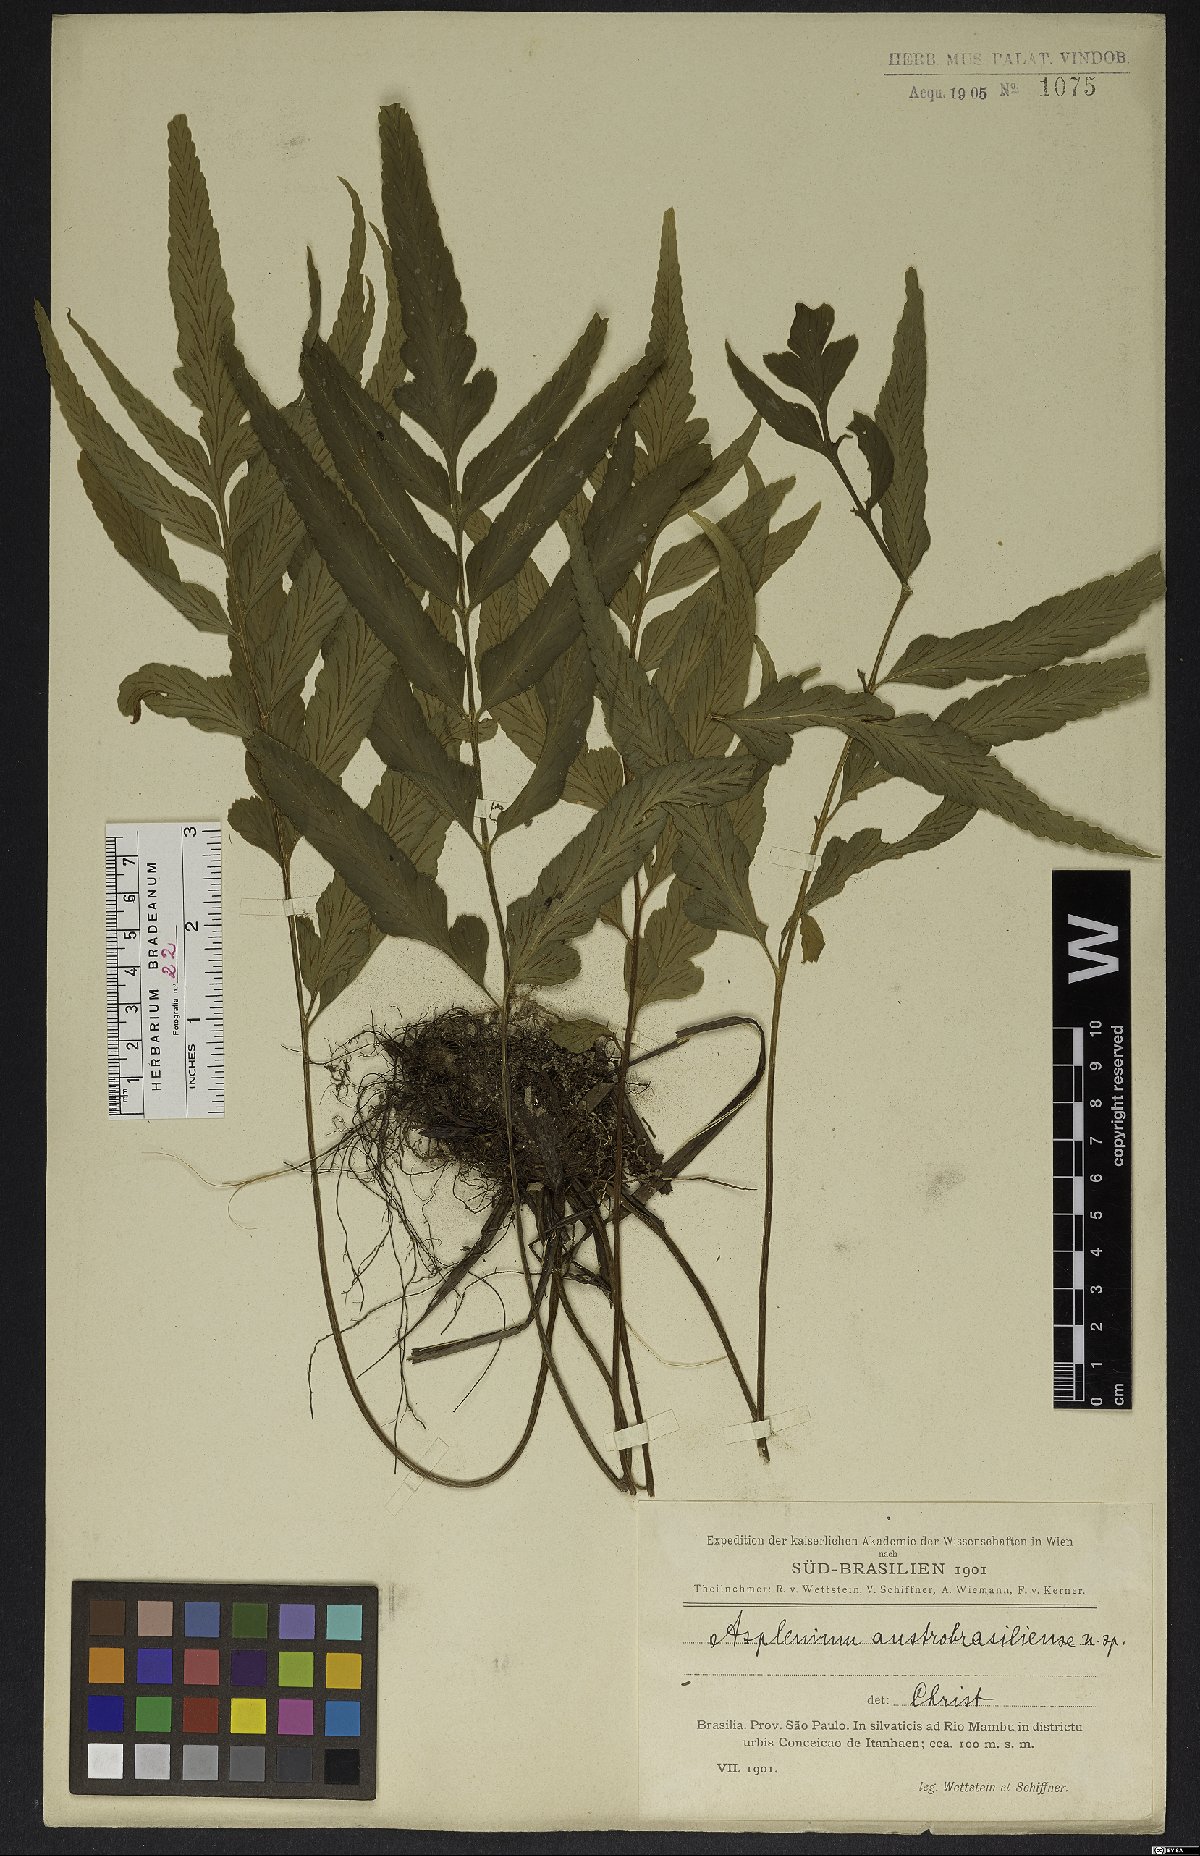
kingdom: Plantae
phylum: Tracheophyta
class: Polypodiopsida
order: Polypodiales
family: Aspleniaceae
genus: Asplenium
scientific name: Asplenium austrobrasiliense
